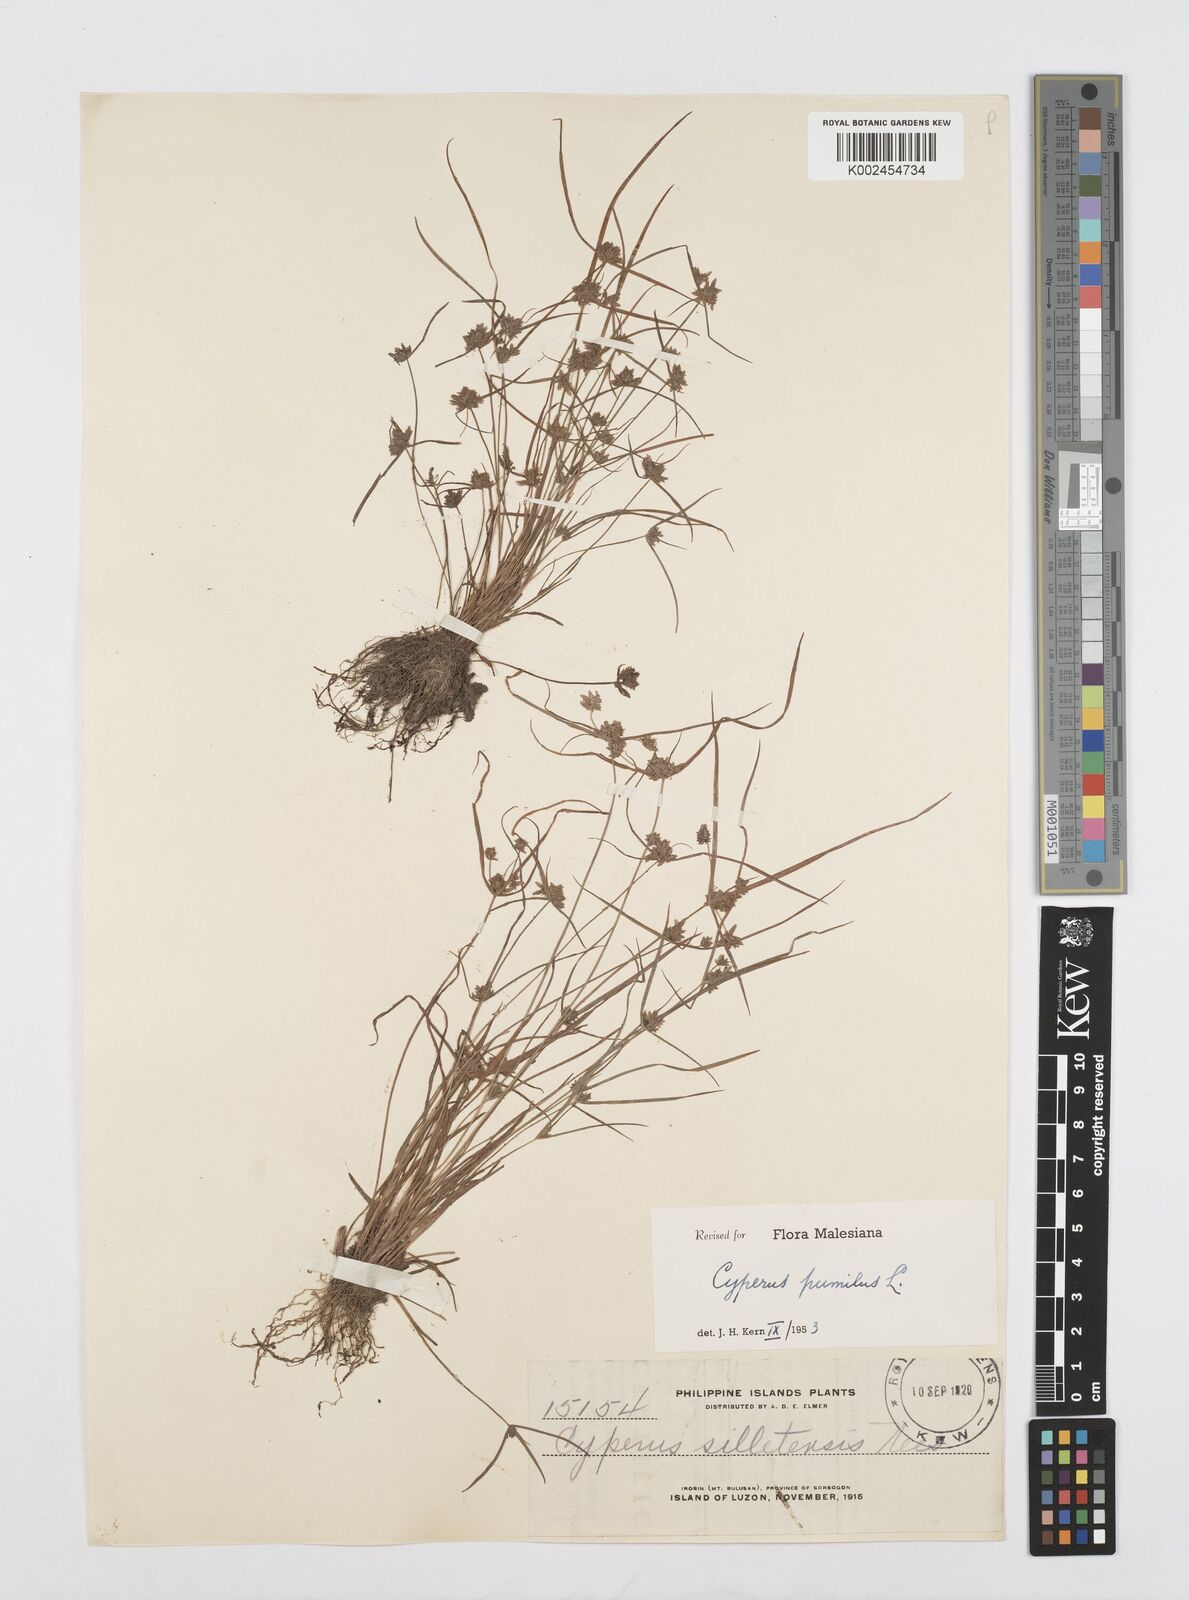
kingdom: Plantae
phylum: Tracheophyta
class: Liliopsida
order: Poales
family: Cyperaceae
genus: Cyperus
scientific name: Cyperus pumilus
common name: Low flatsedge
